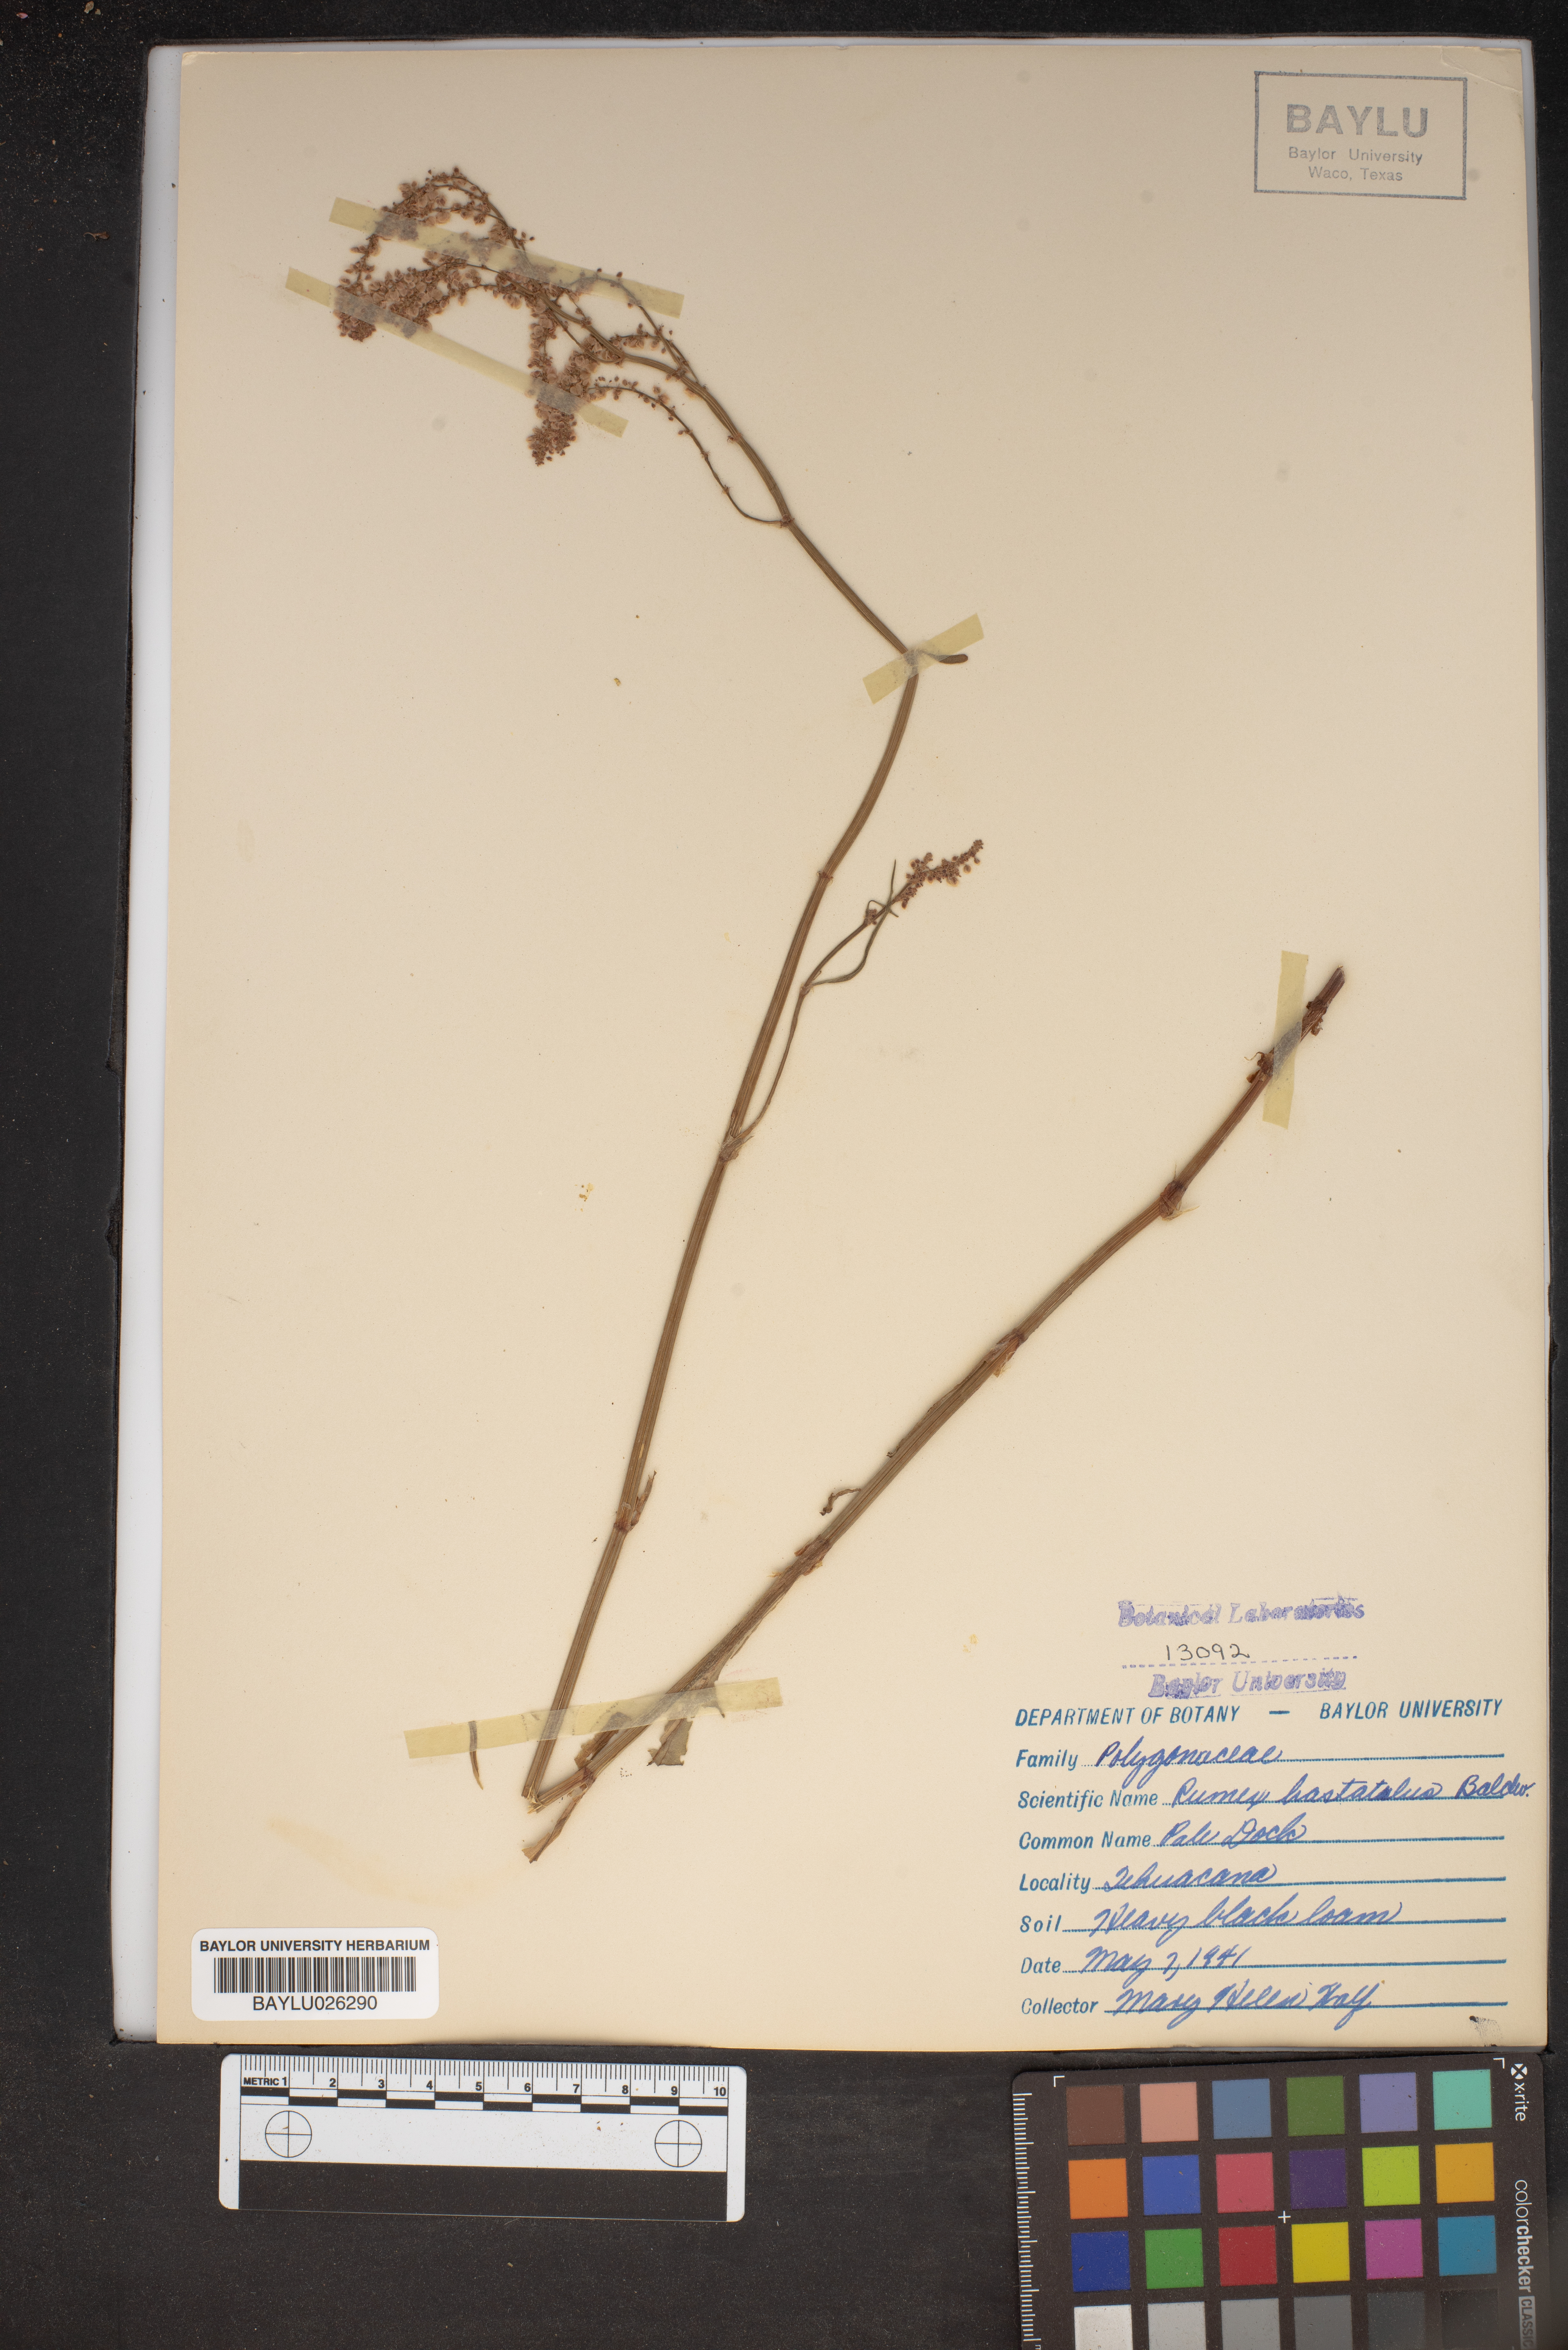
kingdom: Plantae
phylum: Tracheophyta
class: Magnoliopsida
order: Caryophyllales
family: Polygonaceae
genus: Rumex
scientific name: Rumex hastatulus
